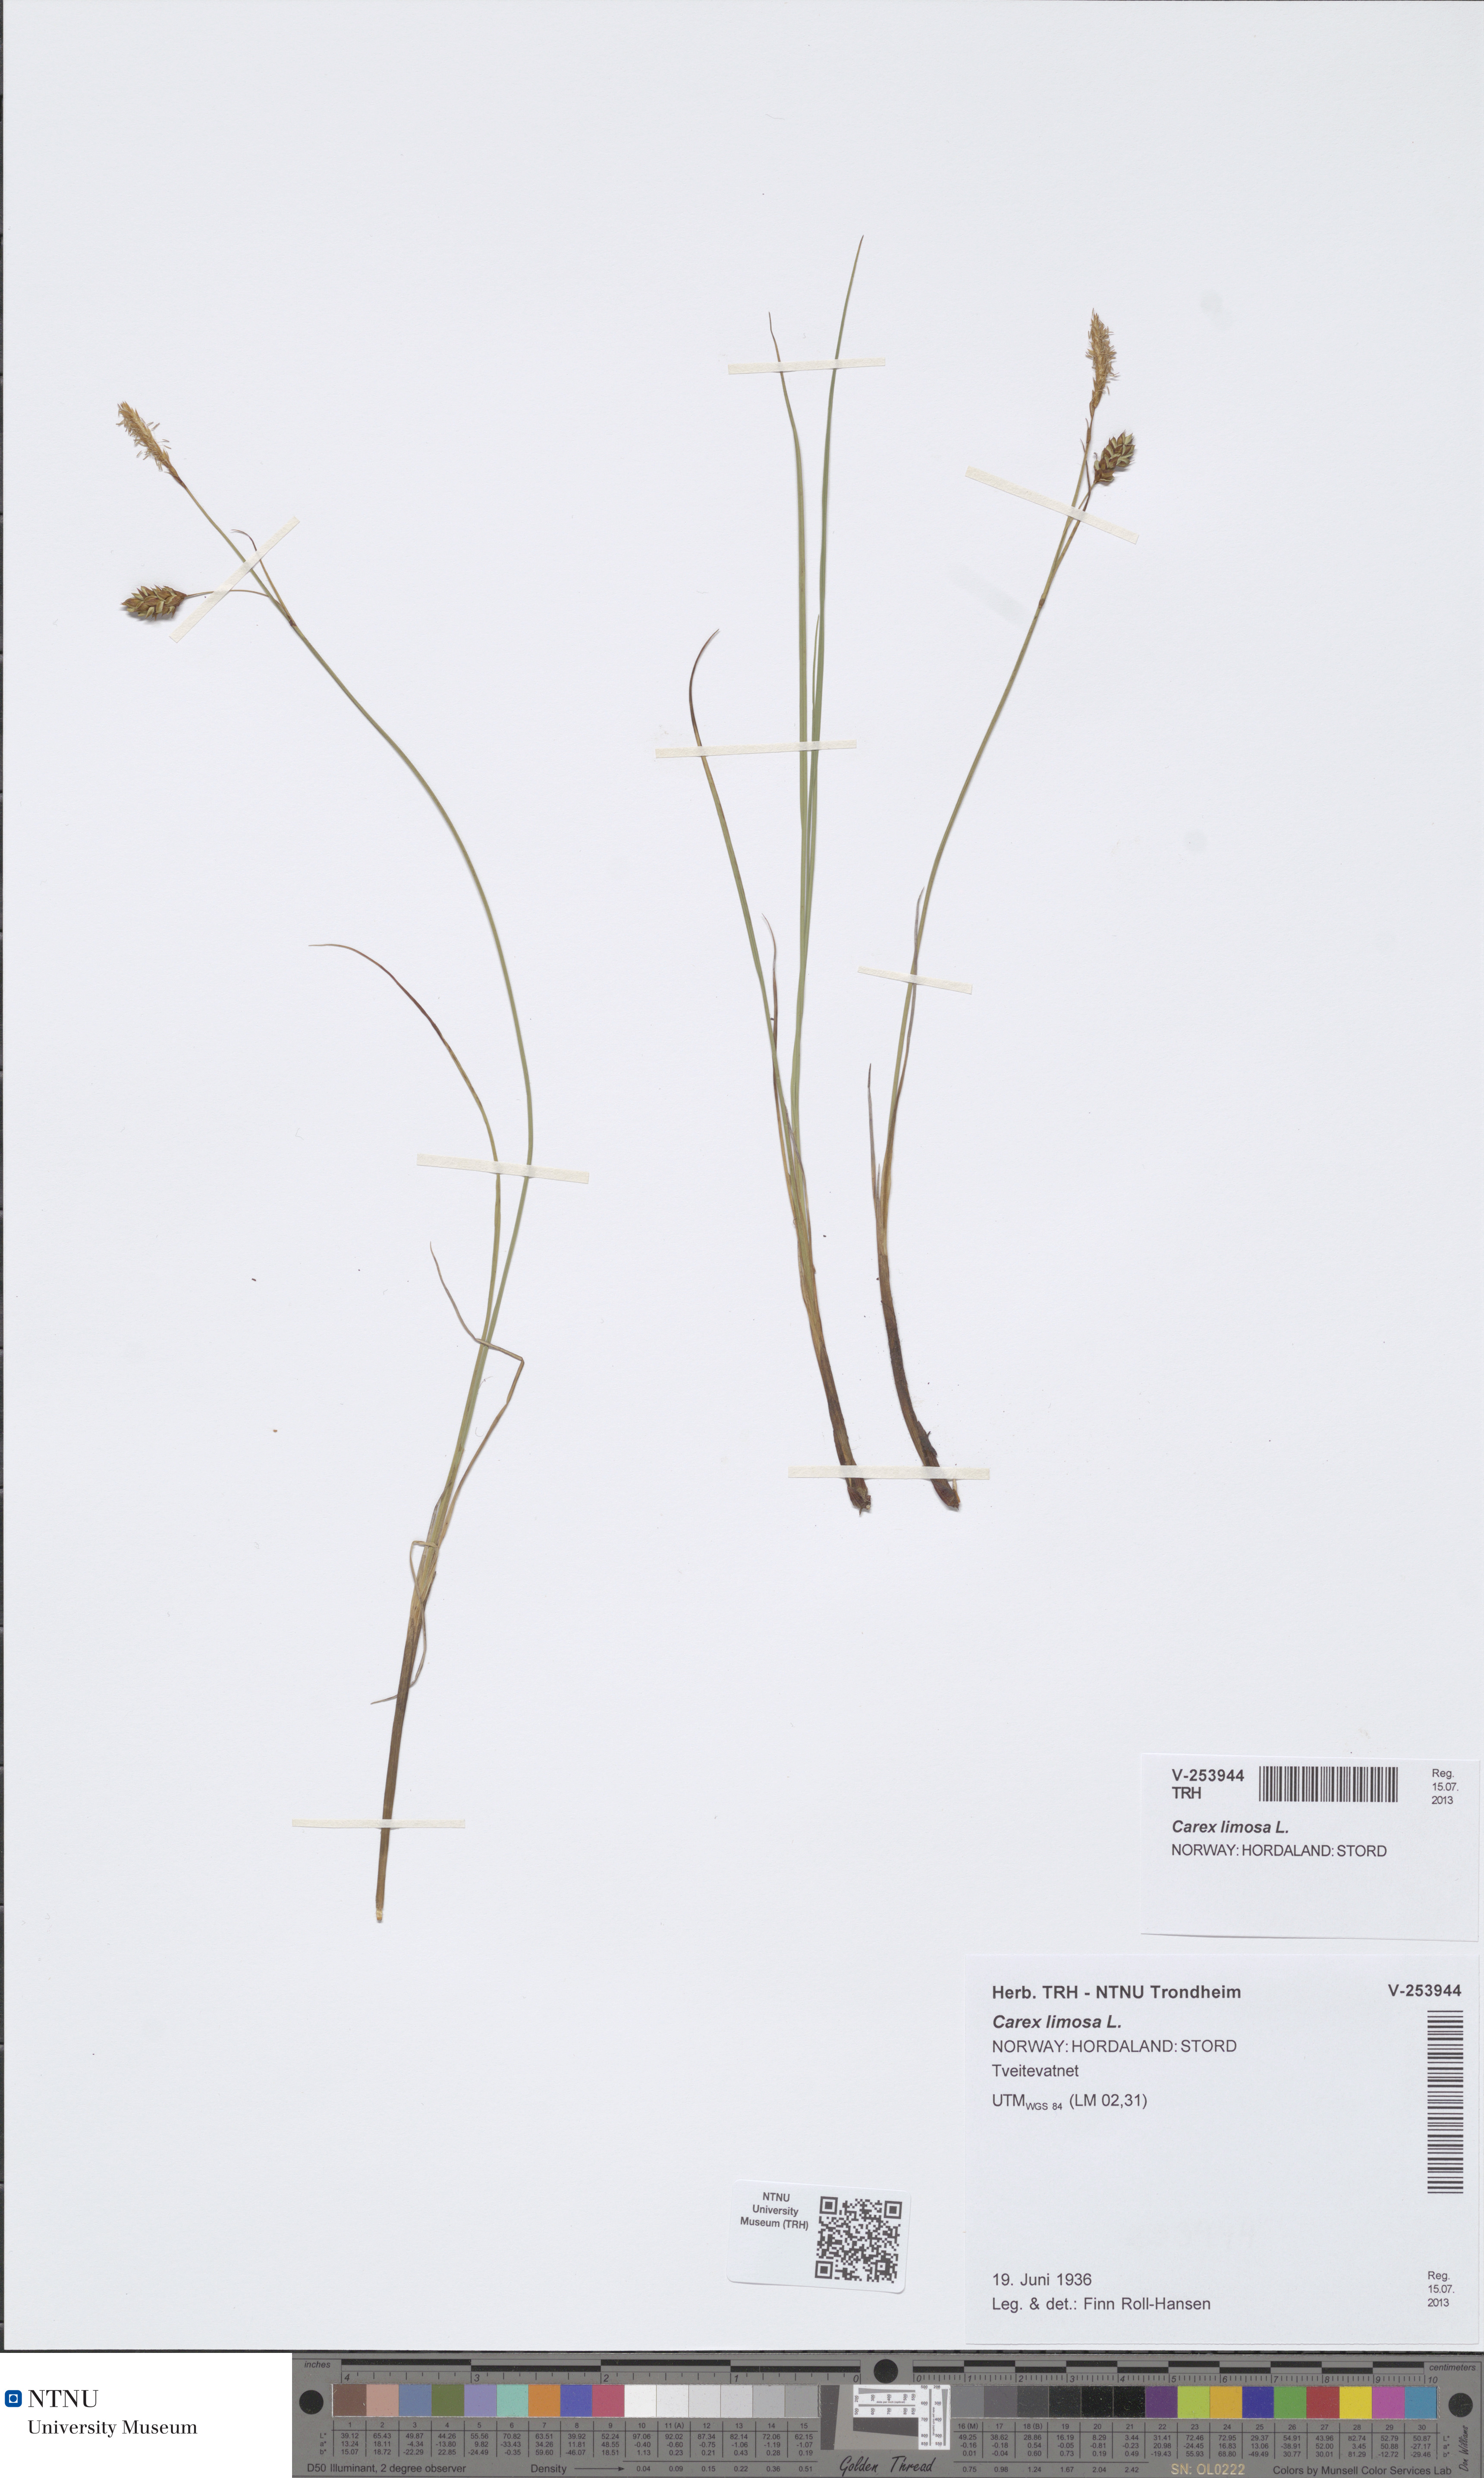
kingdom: Plantae
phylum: Tracheophyta
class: Liliopsida
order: Poales
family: Cyperaceae
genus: Carex
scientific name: Carex limosa
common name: Bog sedge
